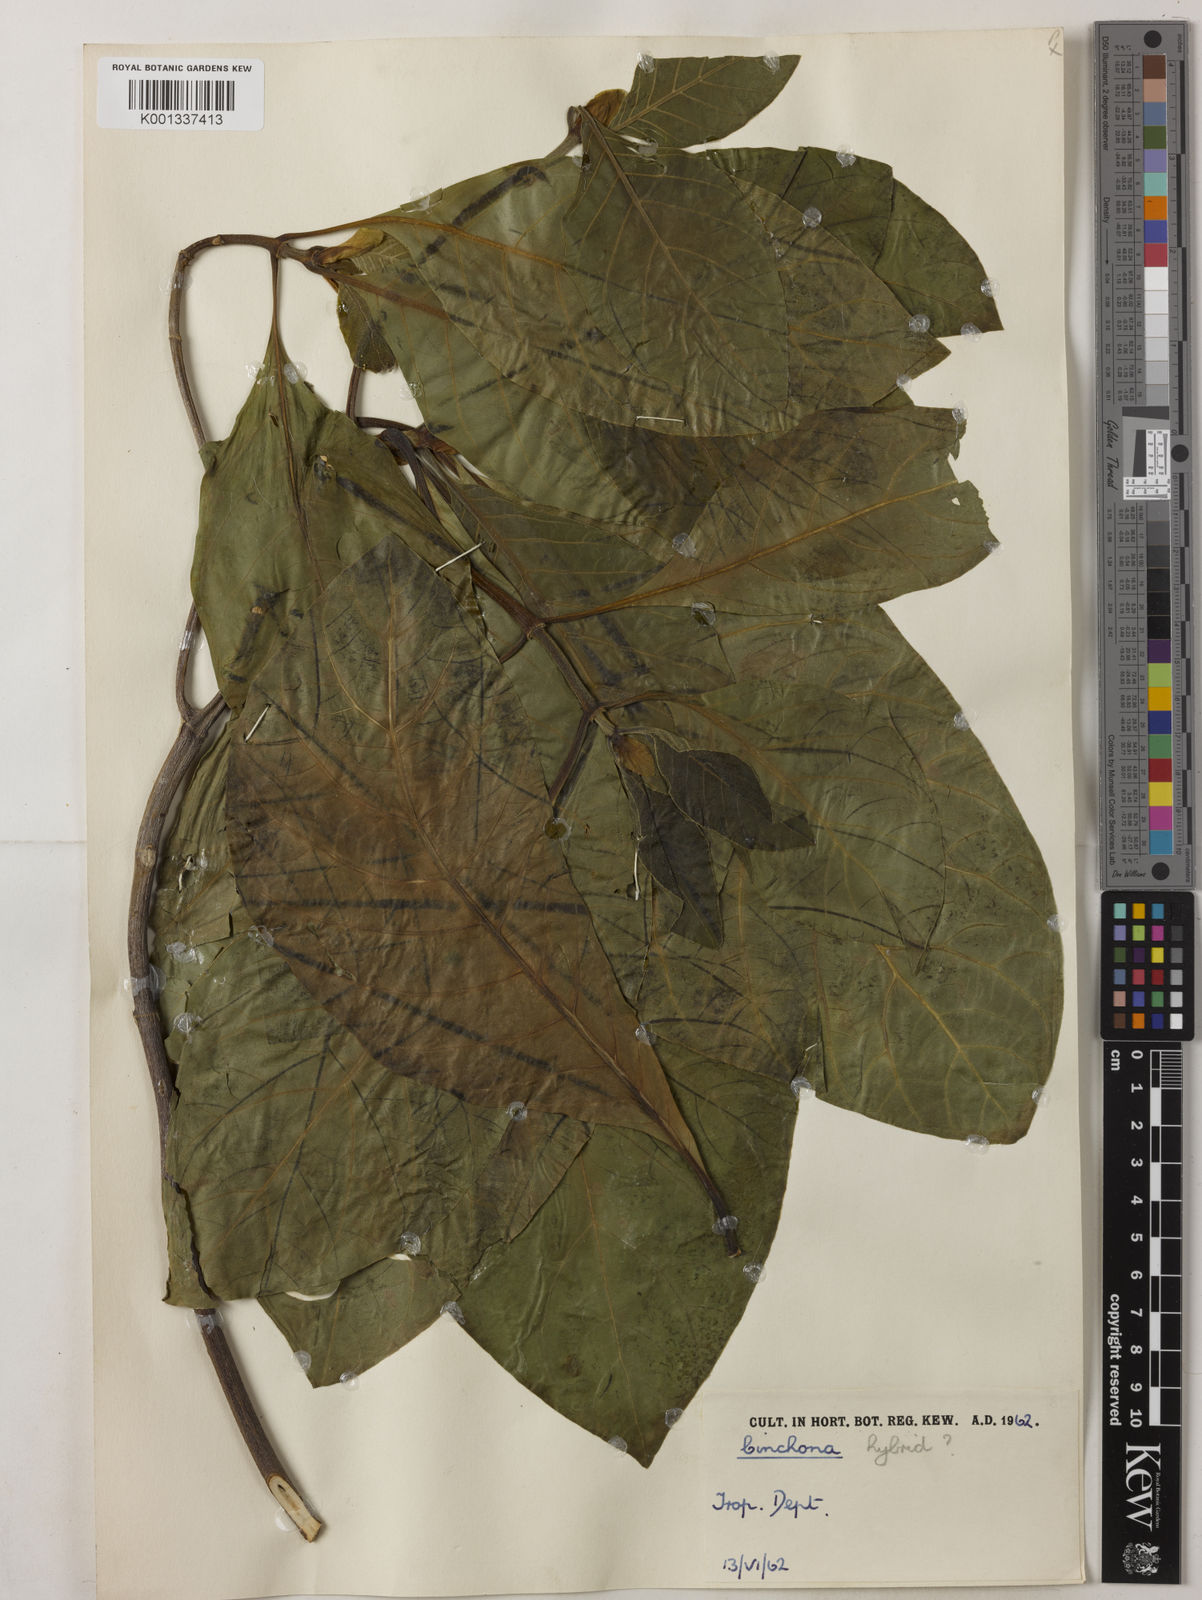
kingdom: Plantae
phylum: Tracheophyta
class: Magnoliopsida
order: Gentianales
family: Rubiaceae
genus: Cinchona
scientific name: Cinchona
